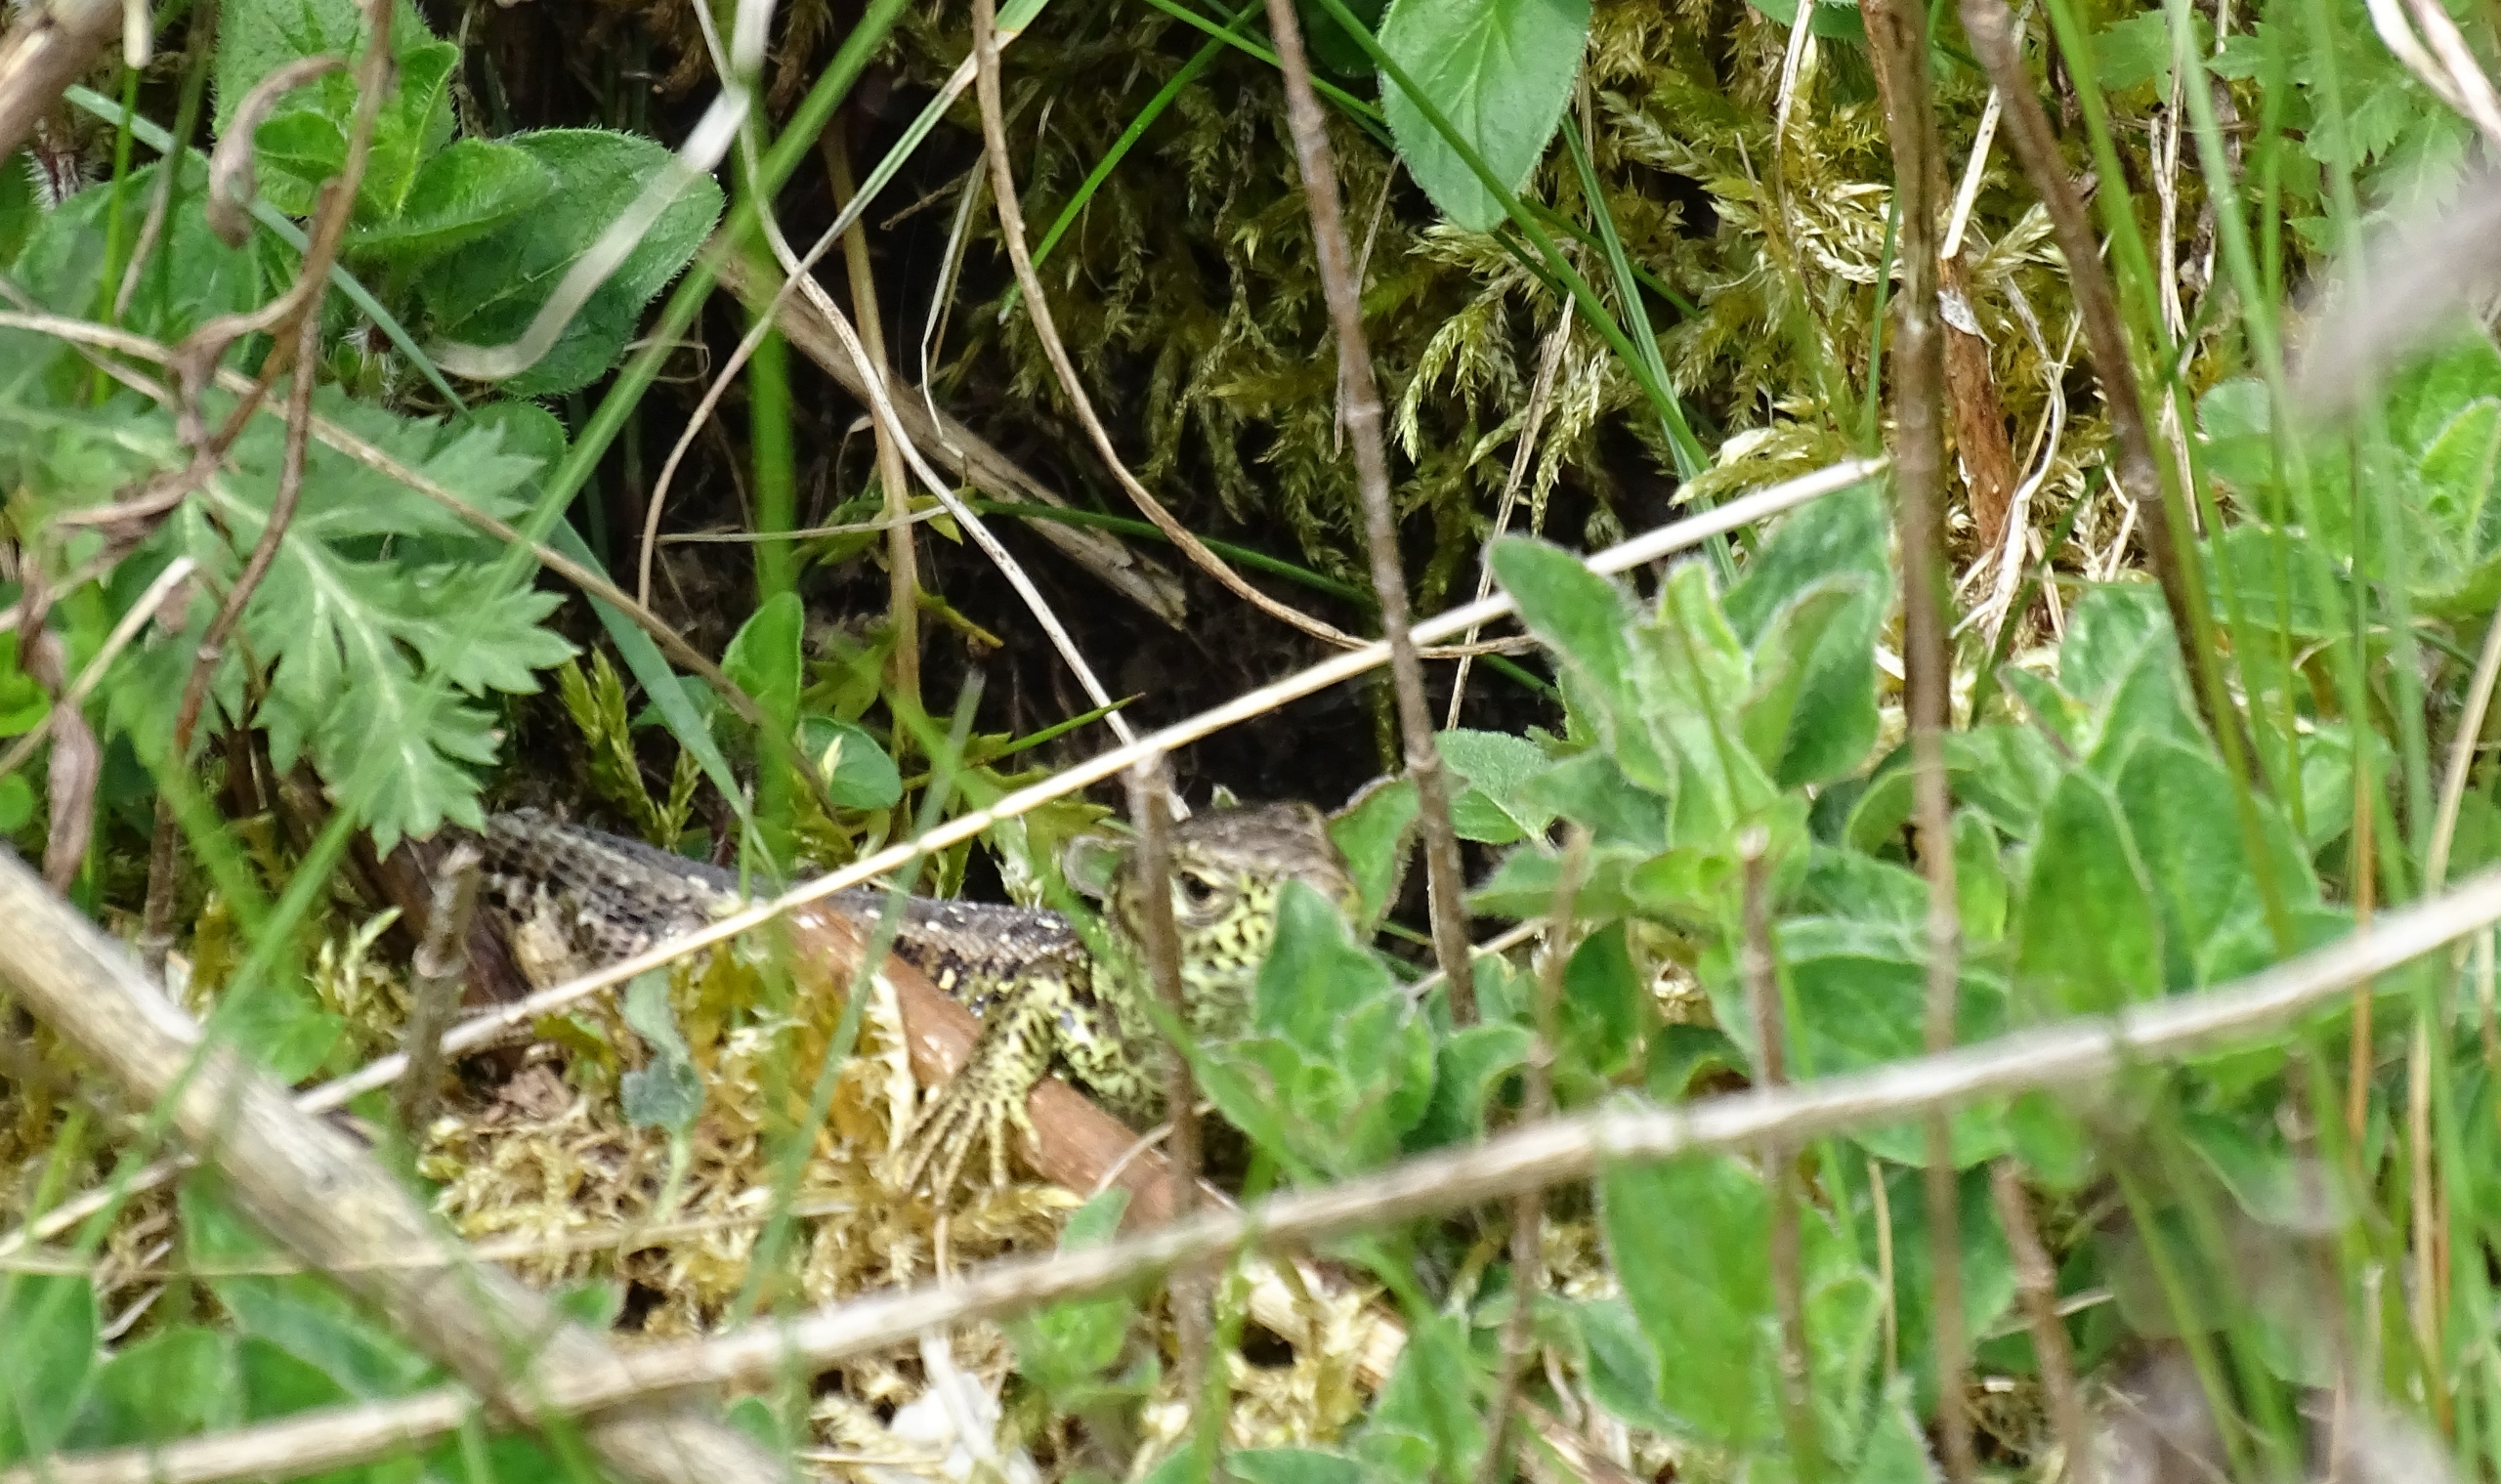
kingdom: Animalia
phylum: Chordata
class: Squamata
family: Lacertidae
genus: Lacerta
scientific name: Lacerta agilis
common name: Markfirben
